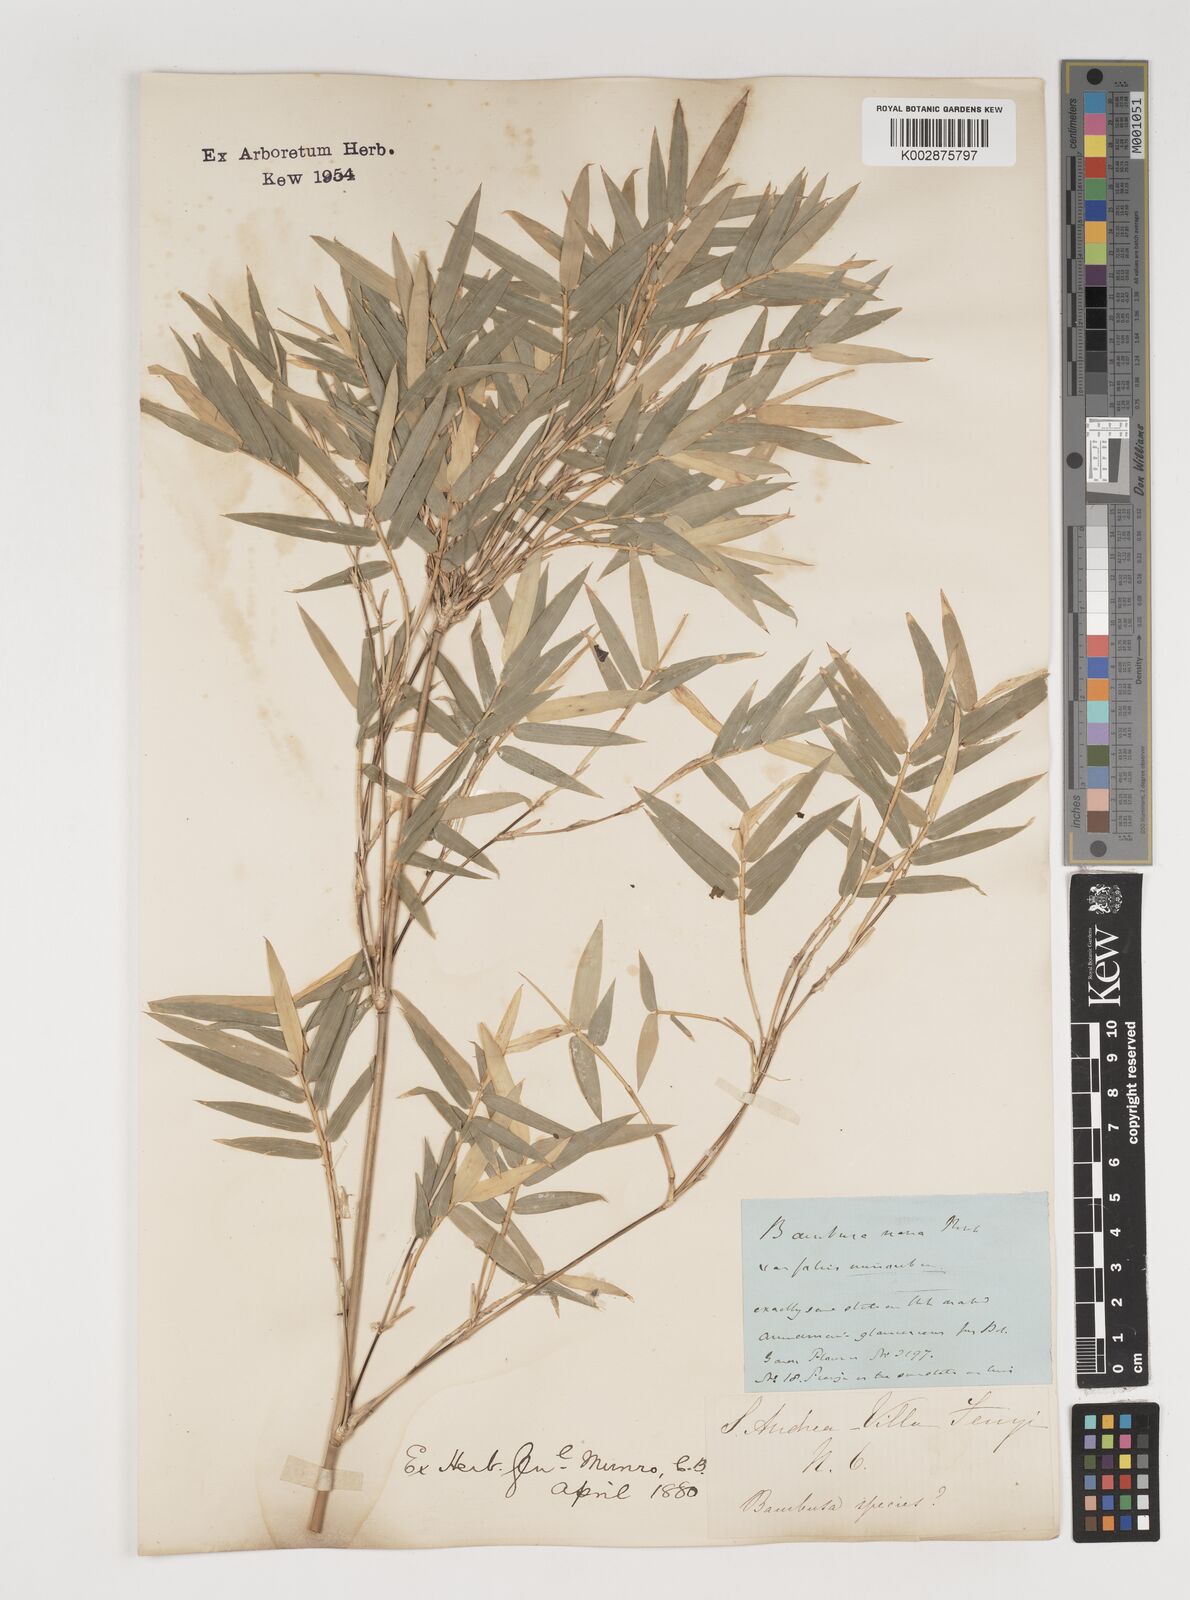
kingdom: Plantae
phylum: Tracheophyta
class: Liliopsida
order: Poales
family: Poaceae
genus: Bambusa
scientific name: Bambusa multiplex
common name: Hedge bamboo
